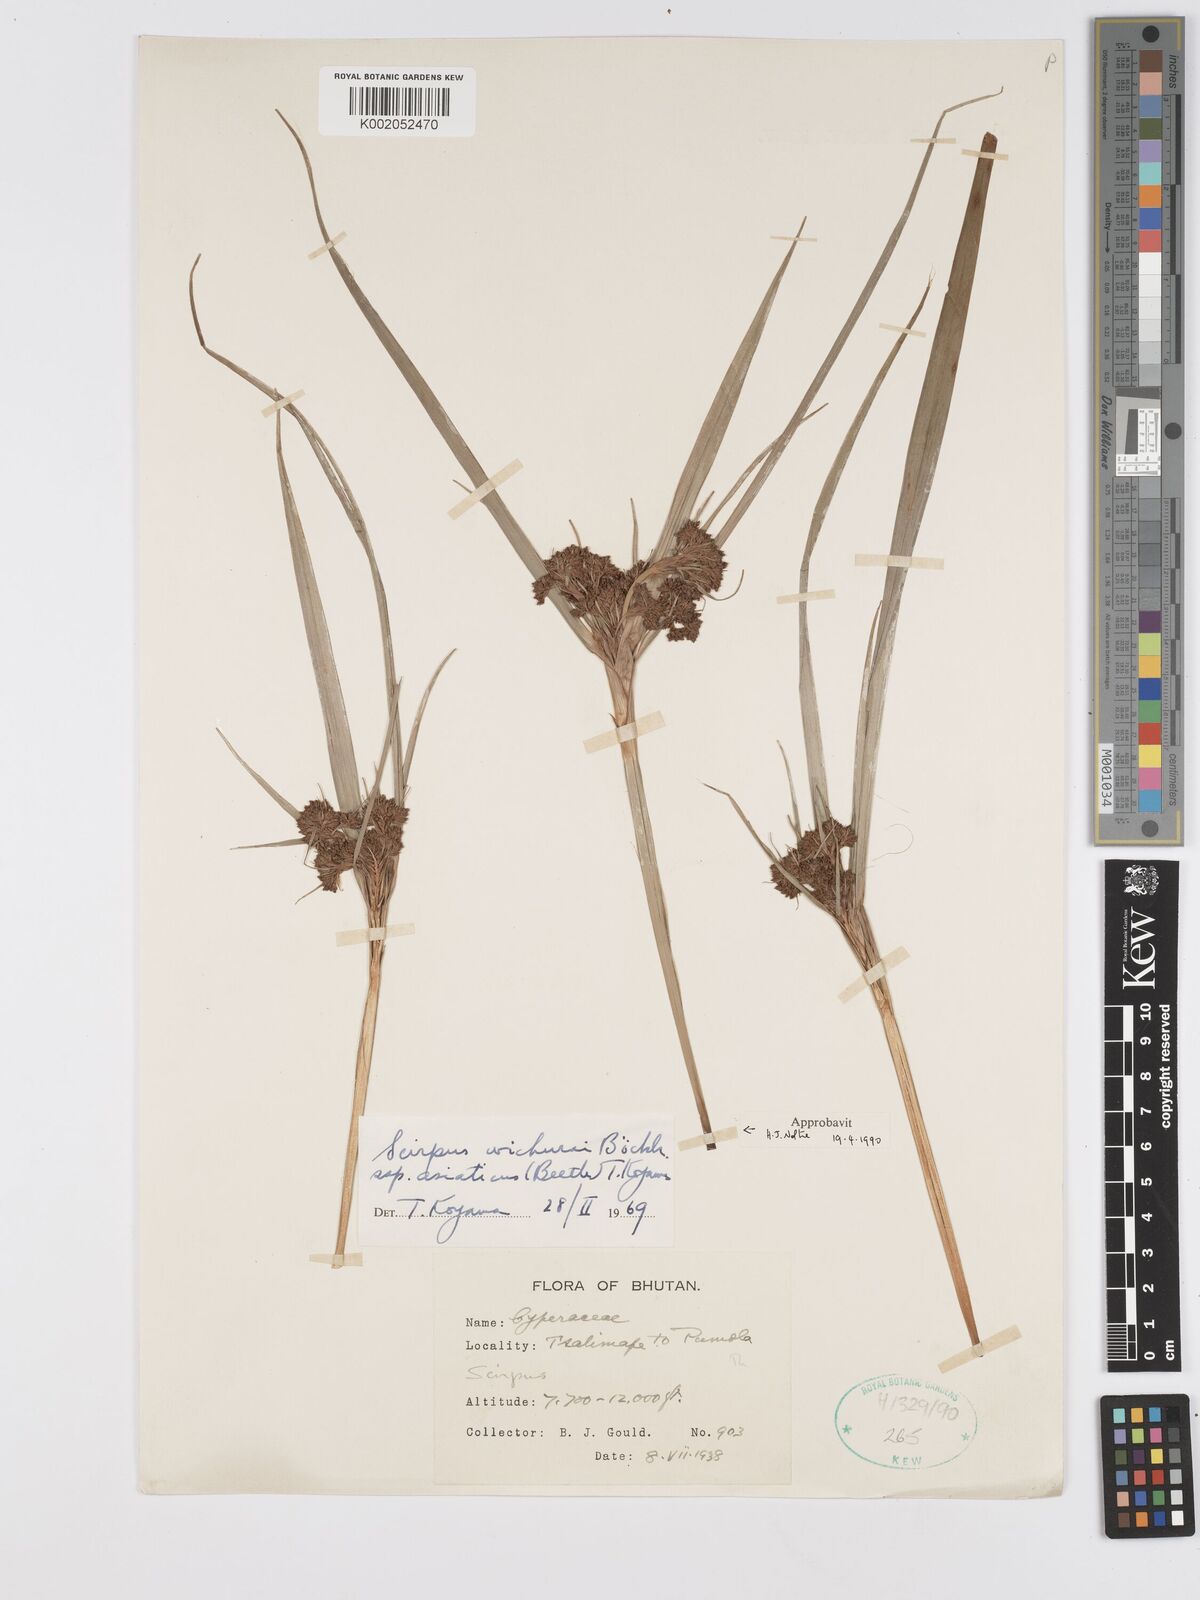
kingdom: Plantae
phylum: Tracheophyta
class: Liliopsida
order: Poales
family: Cyperaceae
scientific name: Cyperaceae
